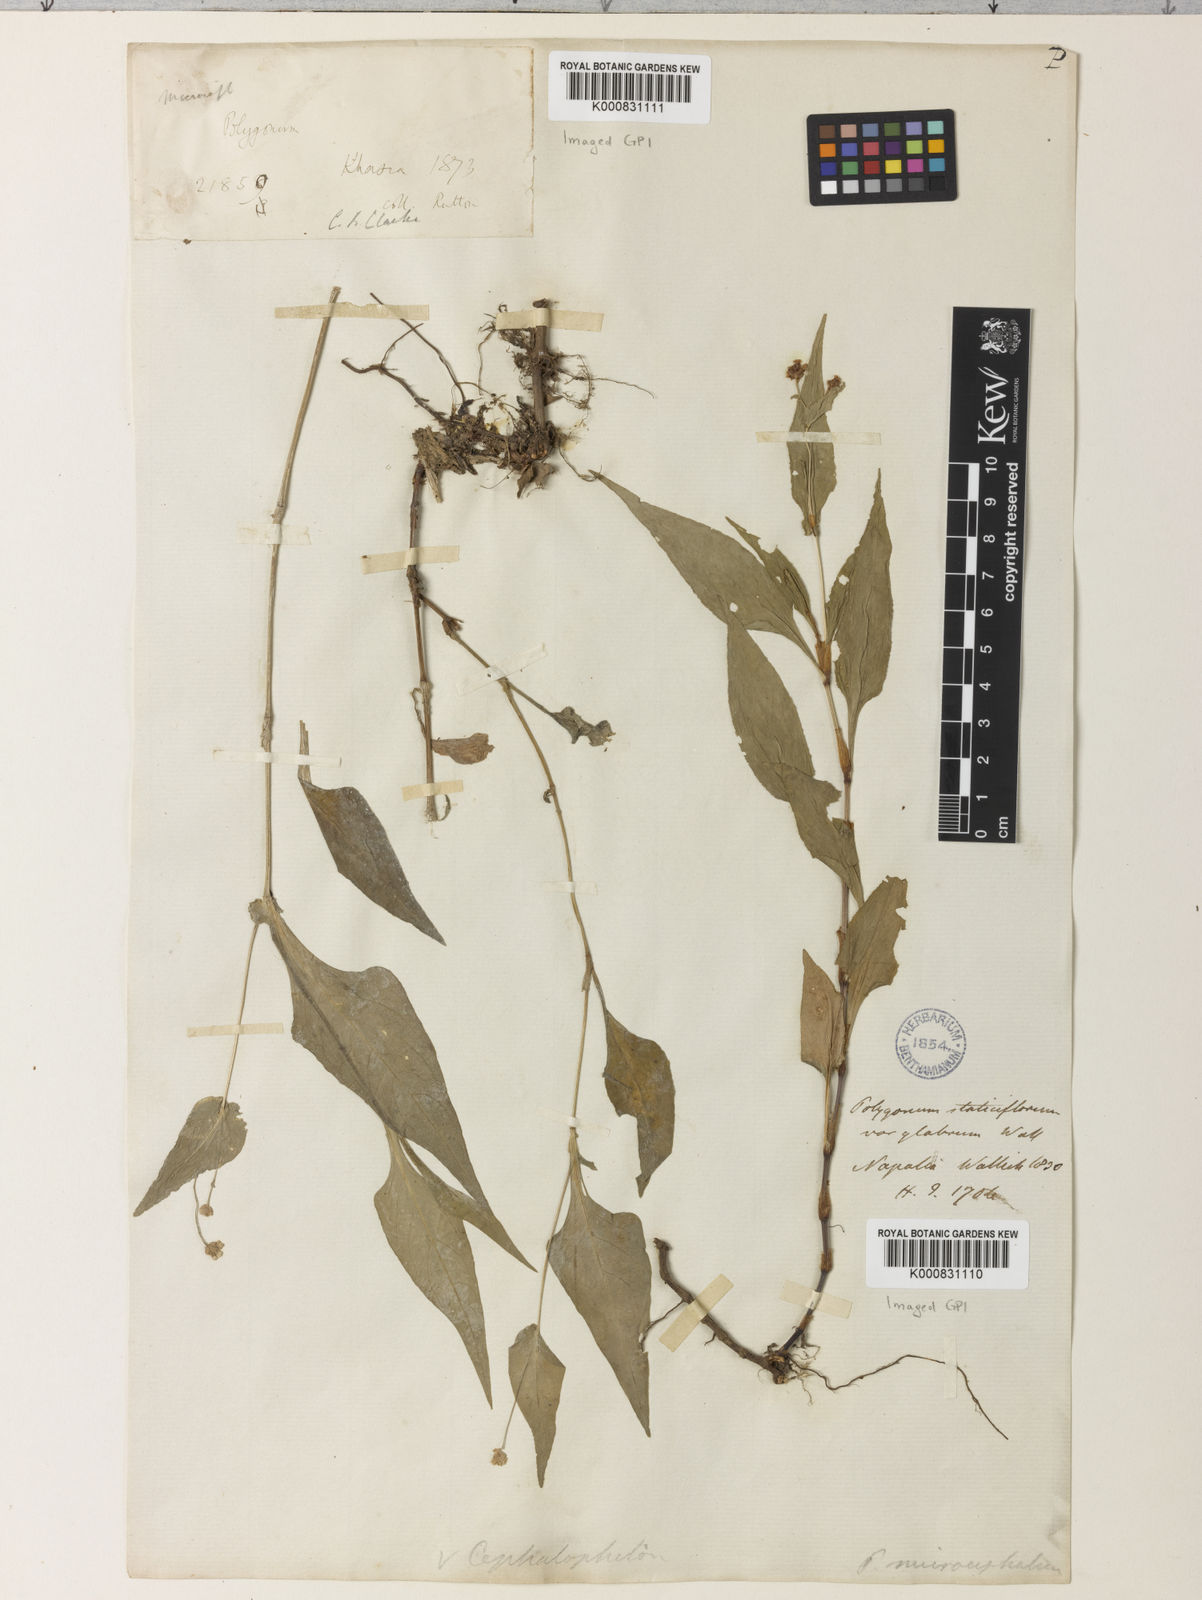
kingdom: Plantae
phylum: Tracheophyta
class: Magnoliopsida
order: Caryophyllales
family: Polygonaceae
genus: Persicaria
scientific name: Persicaria microcephala
